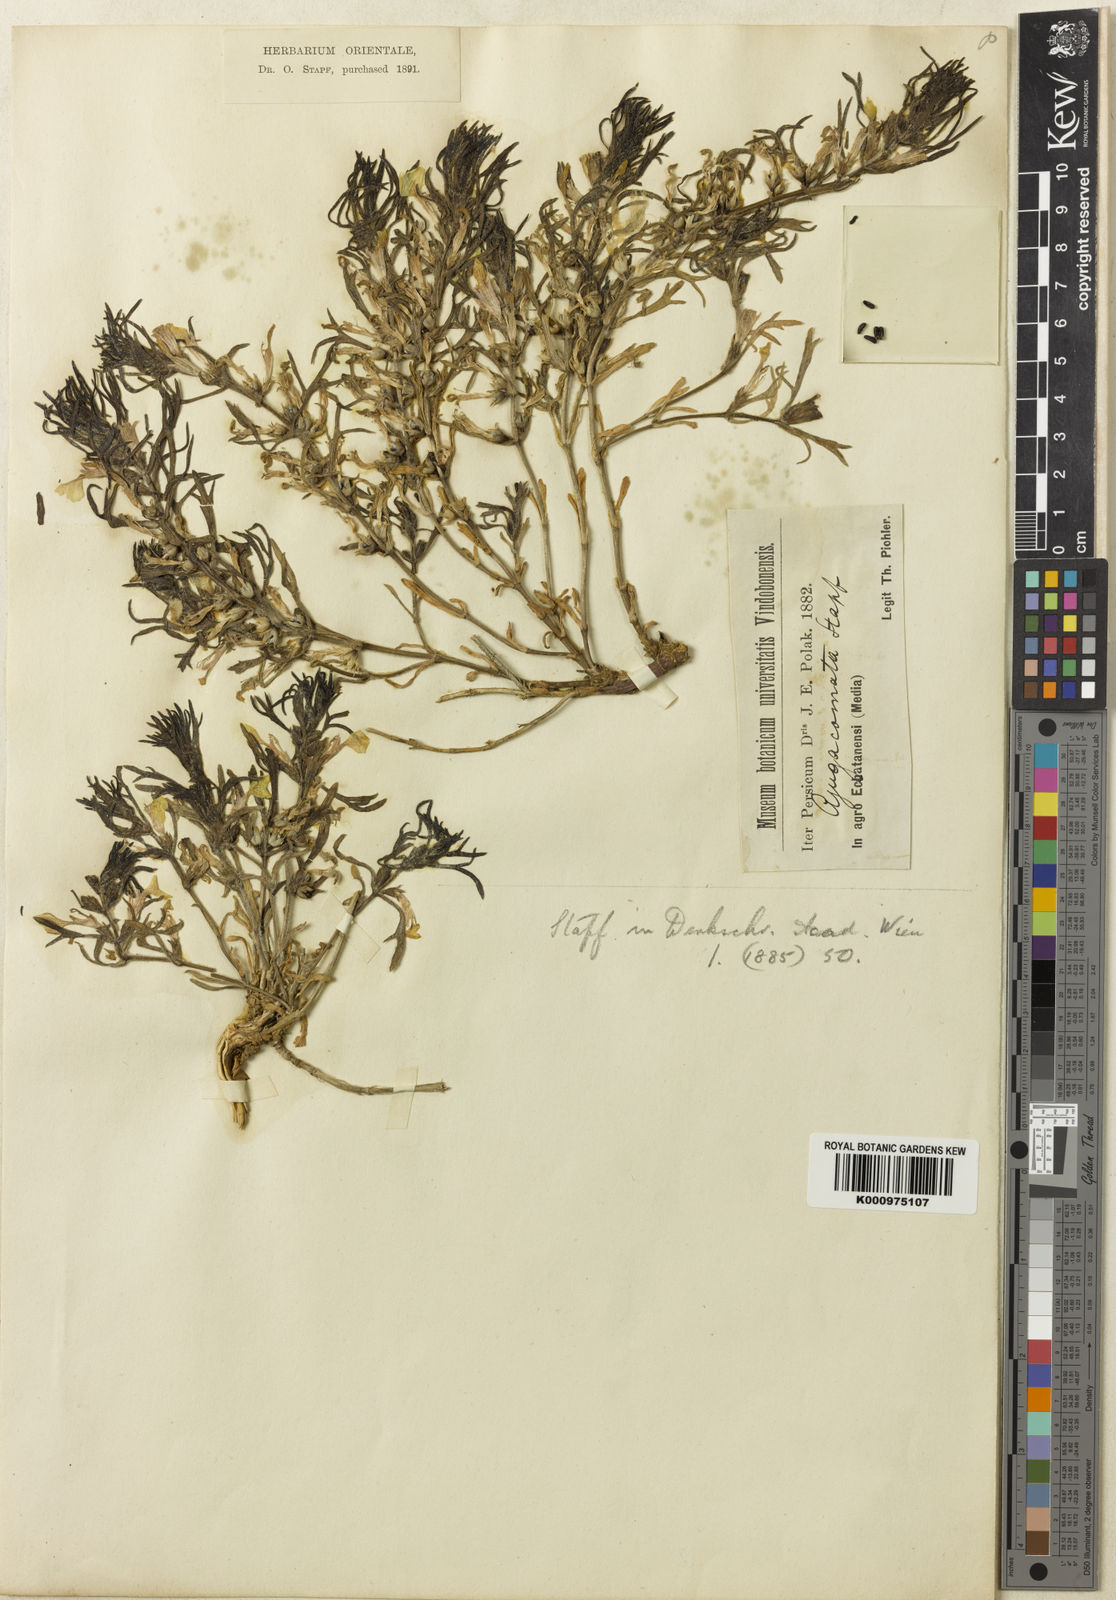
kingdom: Plantae
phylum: Tracheophyta
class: Magnoliopsida
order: Lamiales
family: Lamiaceae
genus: Ajuga
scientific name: Ajuga chamaepitys
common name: Ground-pine
